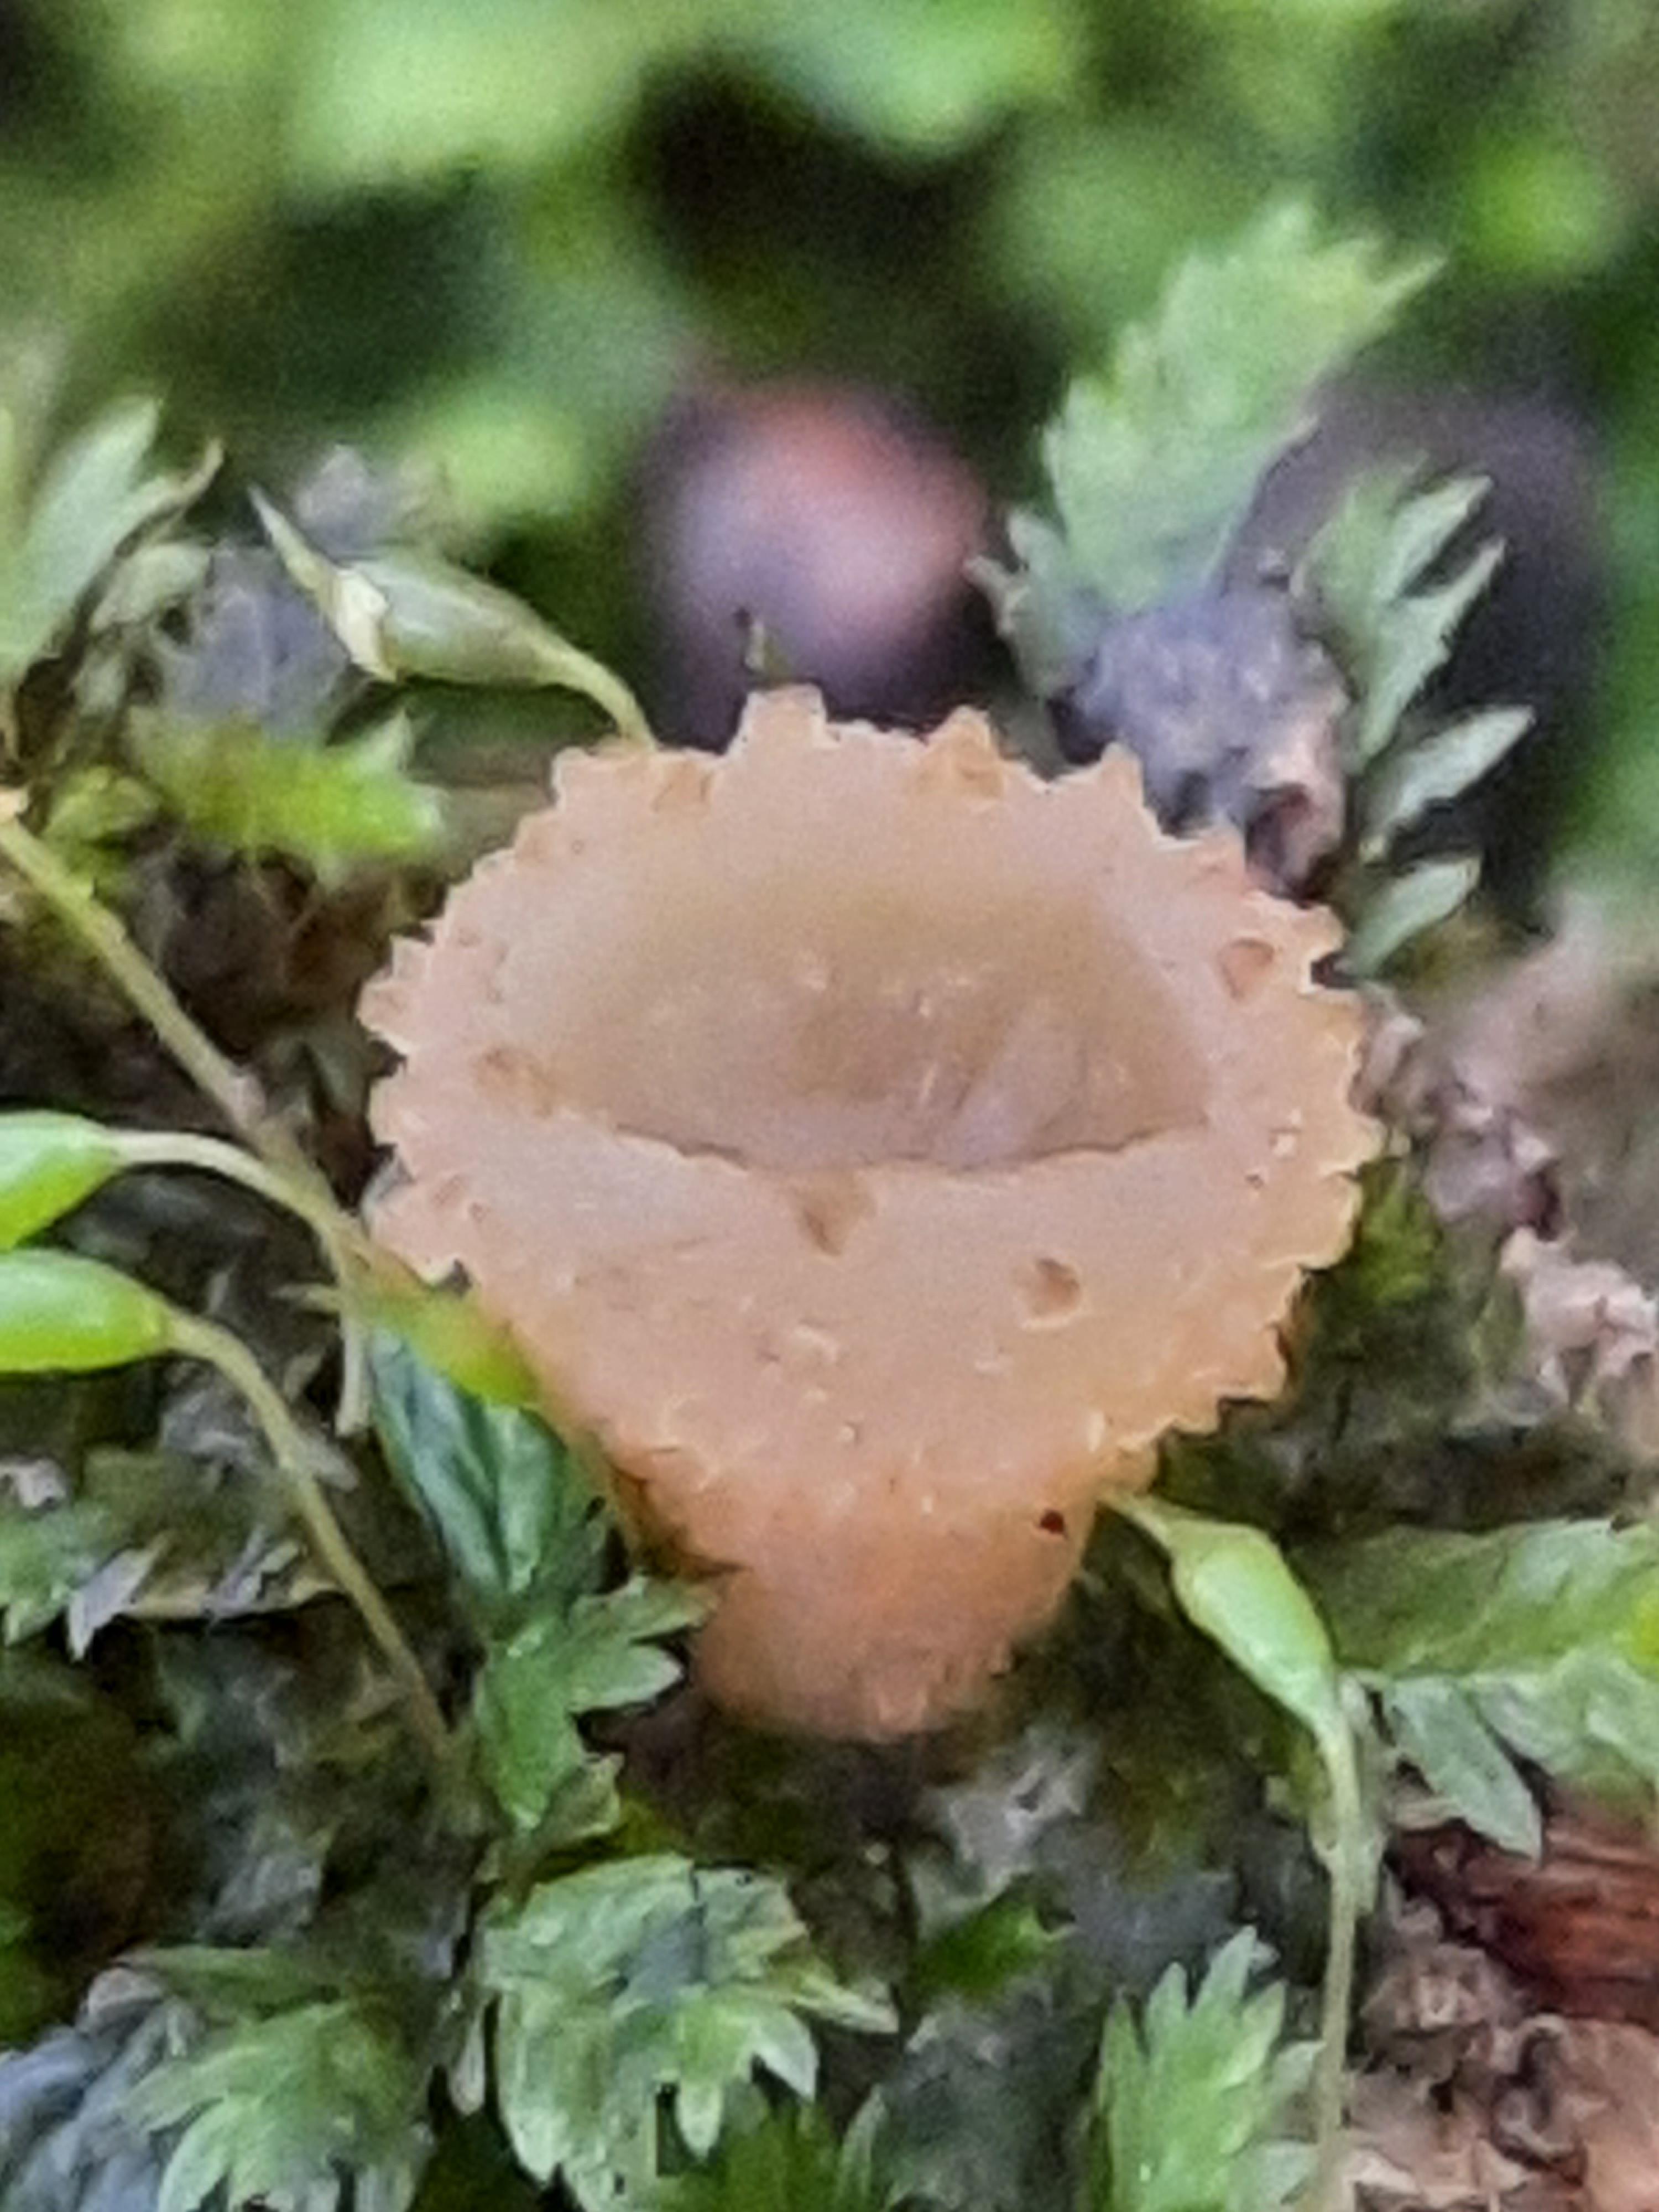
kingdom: Fungi
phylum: Ascomycota
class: Pezizomycetes
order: Pezizales
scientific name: Pezizales
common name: bægersvampordenen
